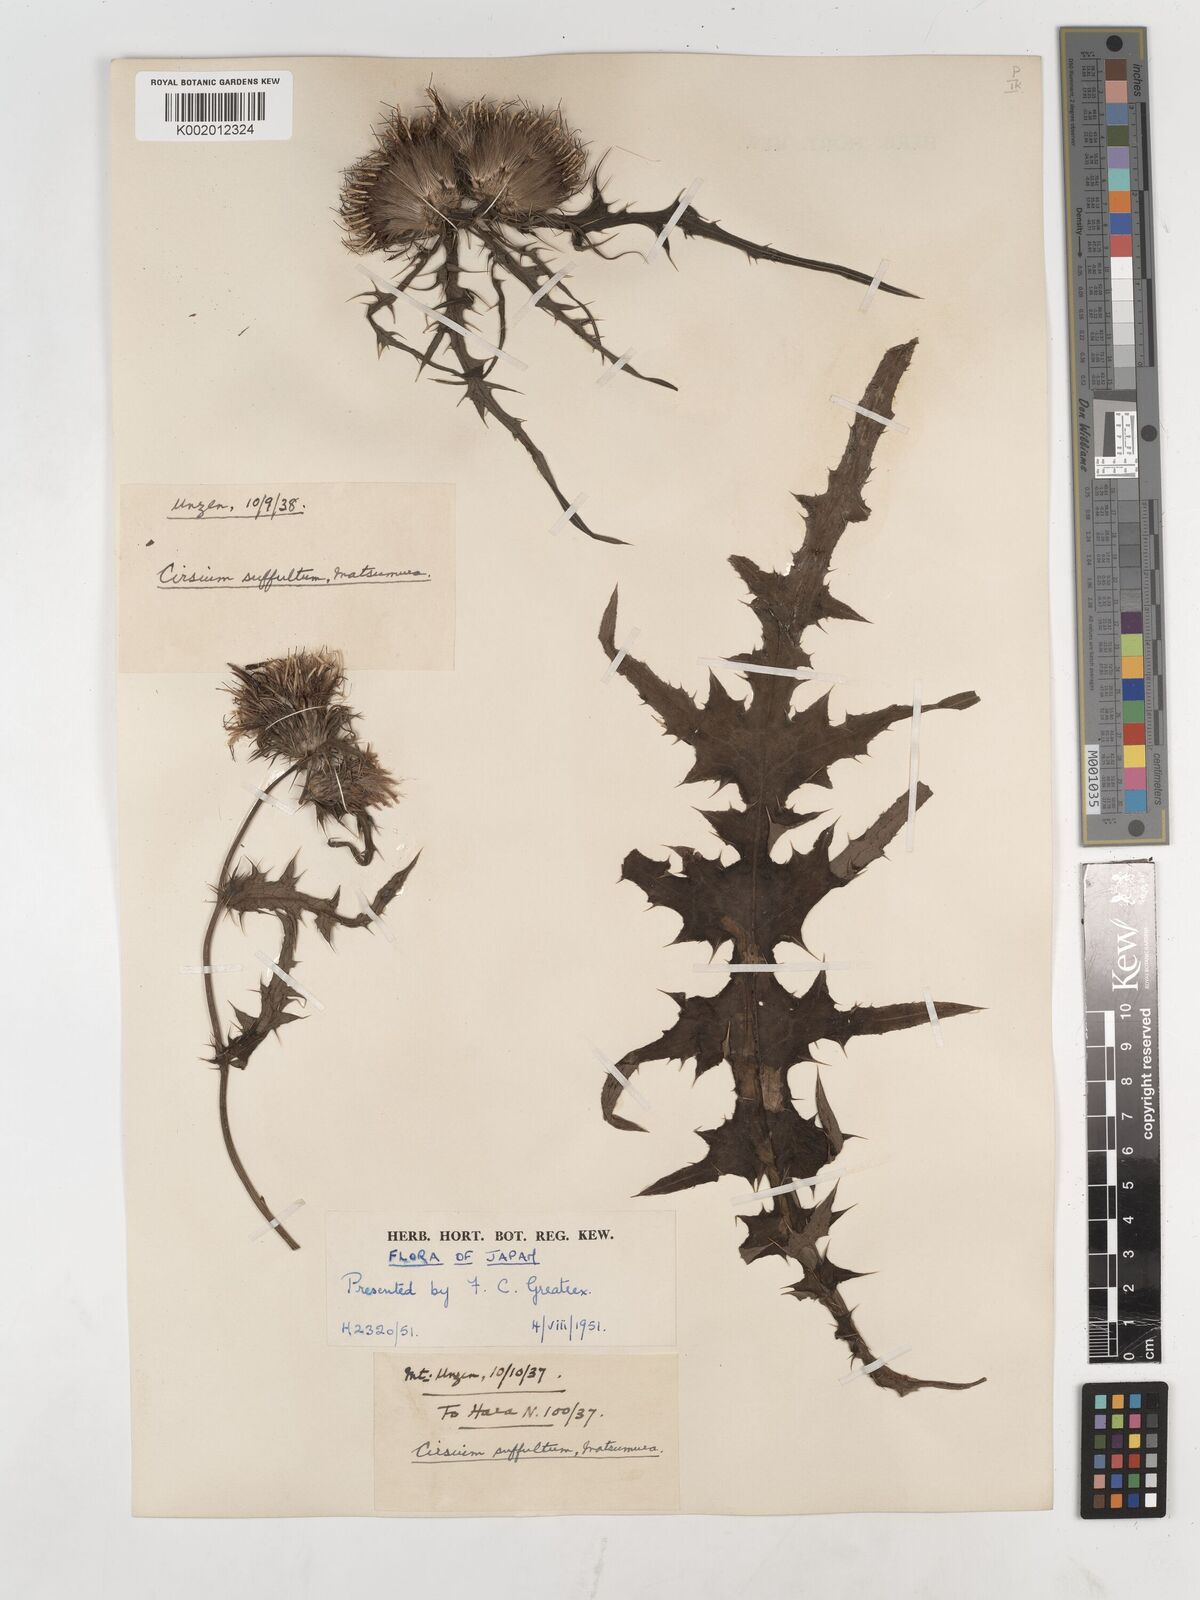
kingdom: Plantae
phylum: Tracheophyta
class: Magnoliopsida
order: Asterales
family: Asteraceae
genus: Cirsium
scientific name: Cirsium suffultum
